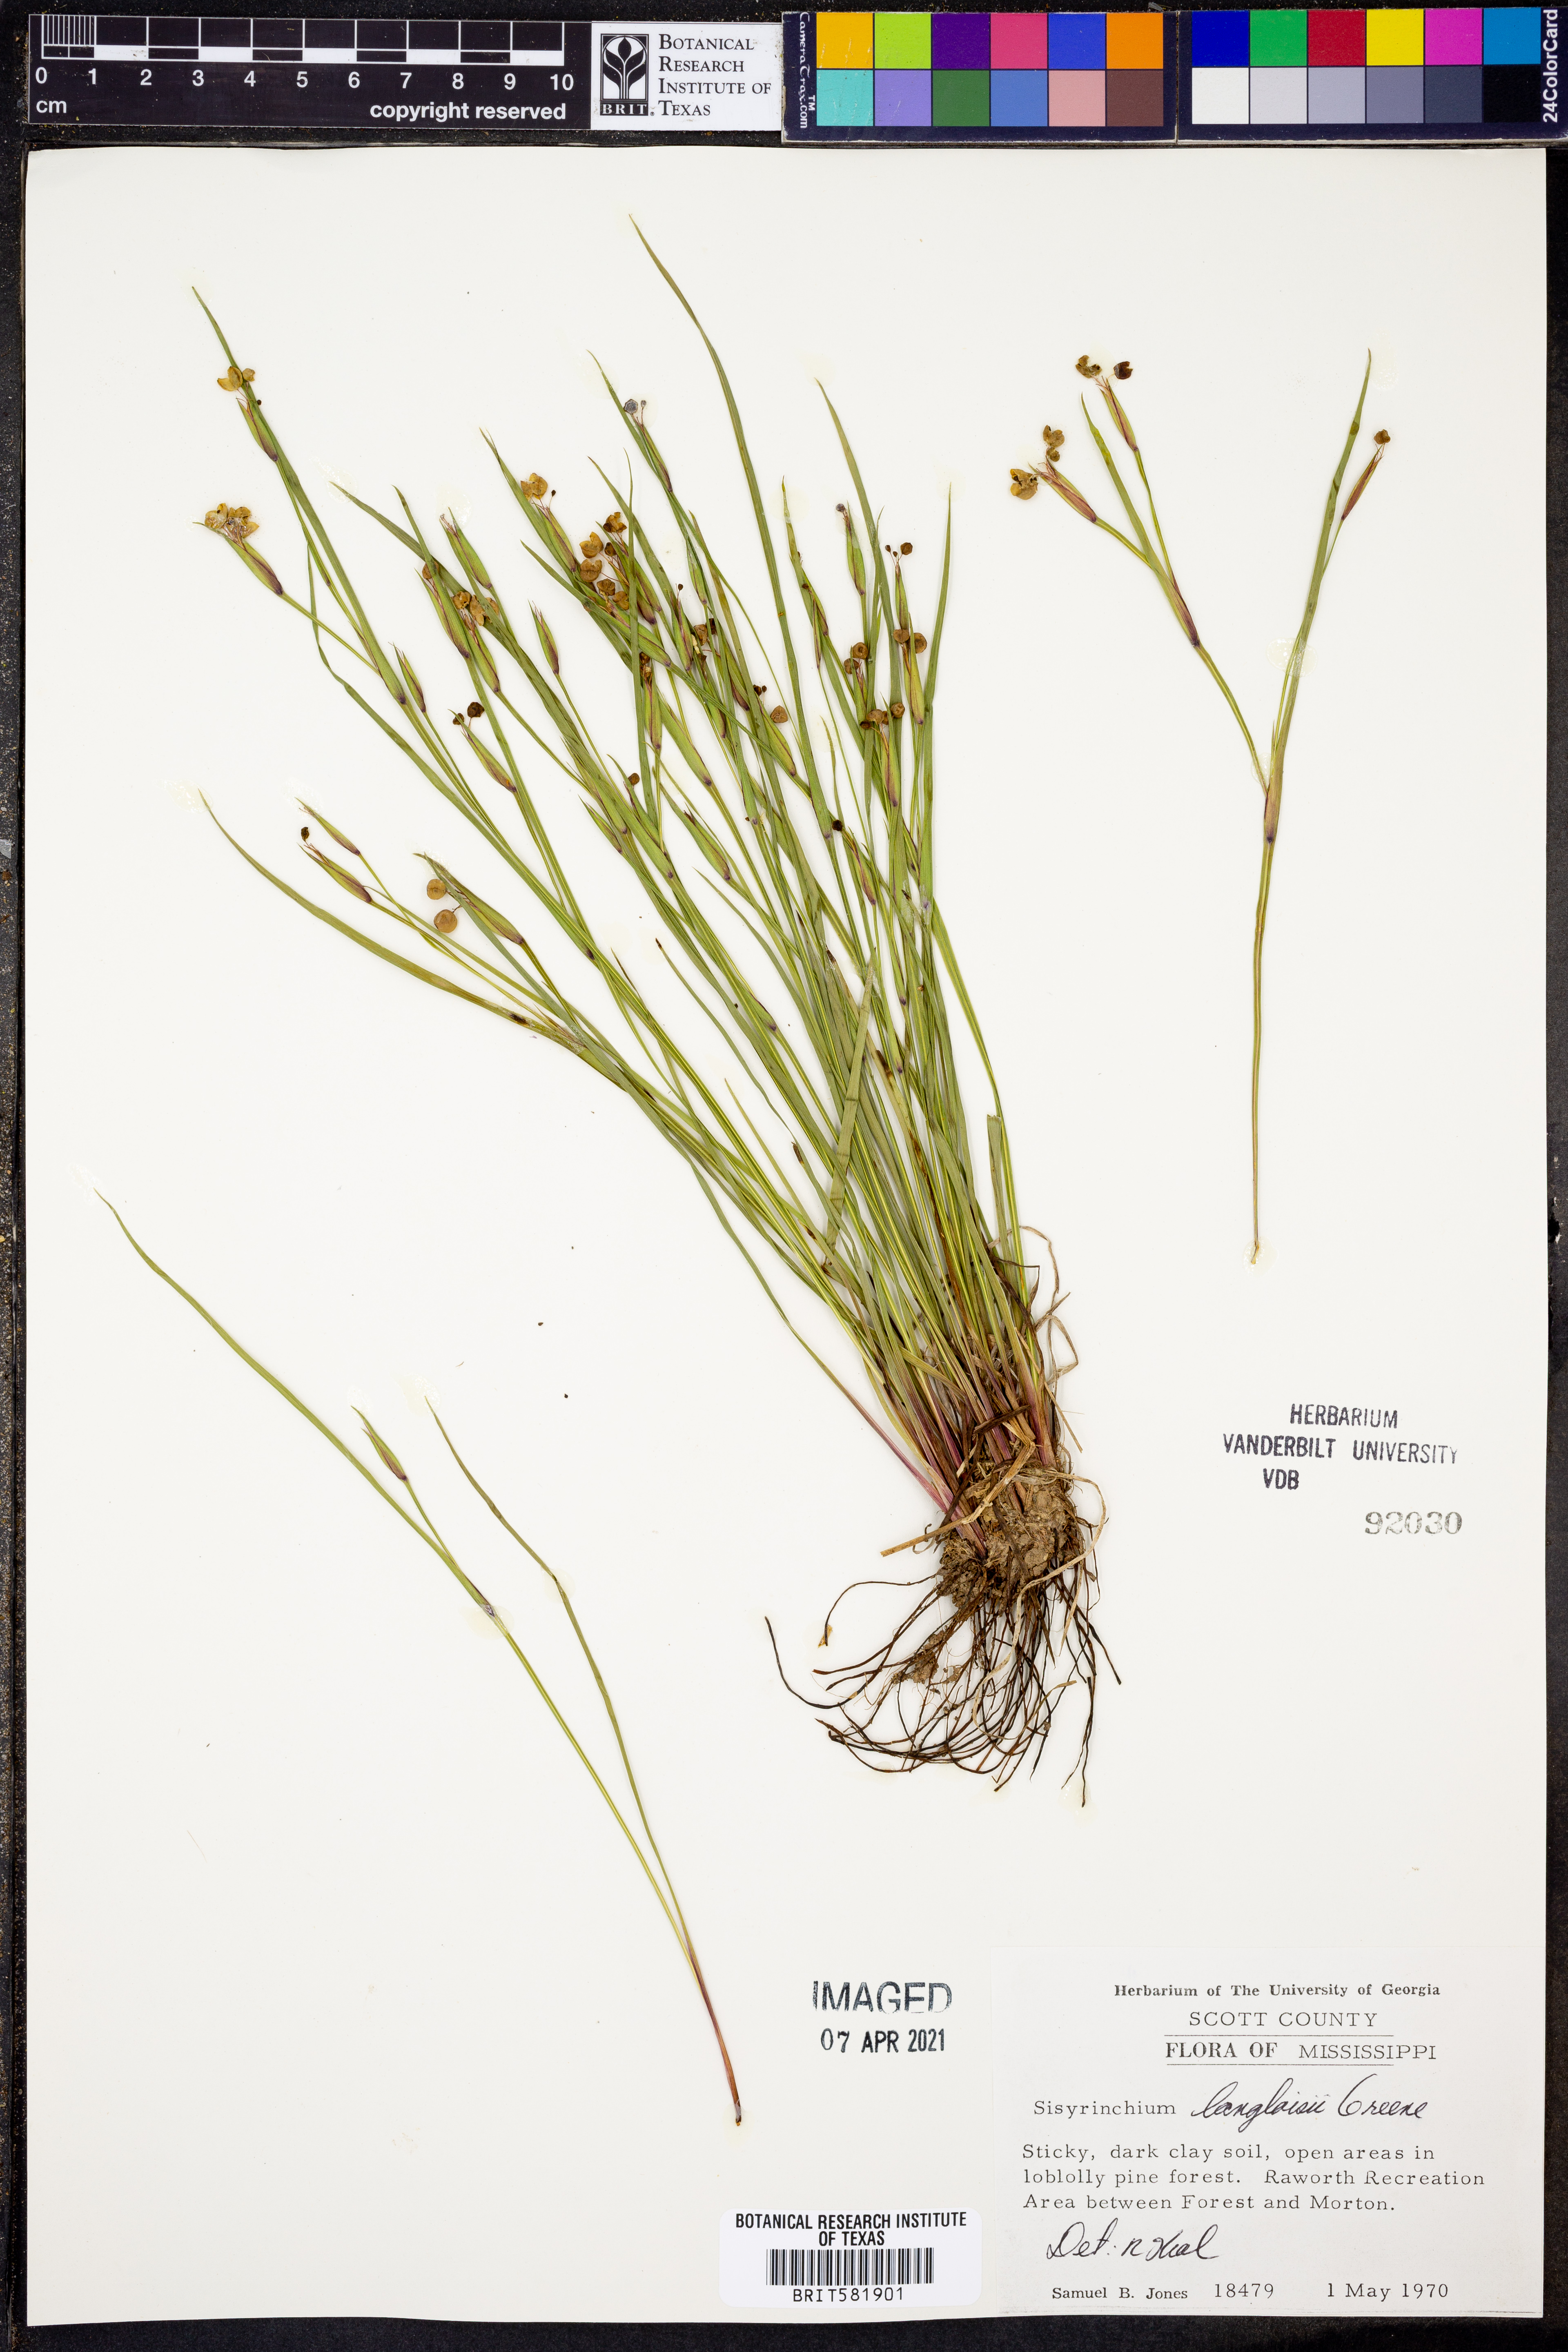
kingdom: Plantae
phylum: Tracheophyta
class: Liliopsida
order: Asparagales
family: Iridaceae
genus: Sisyrinchium
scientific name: Sisyrinchium langloisii
